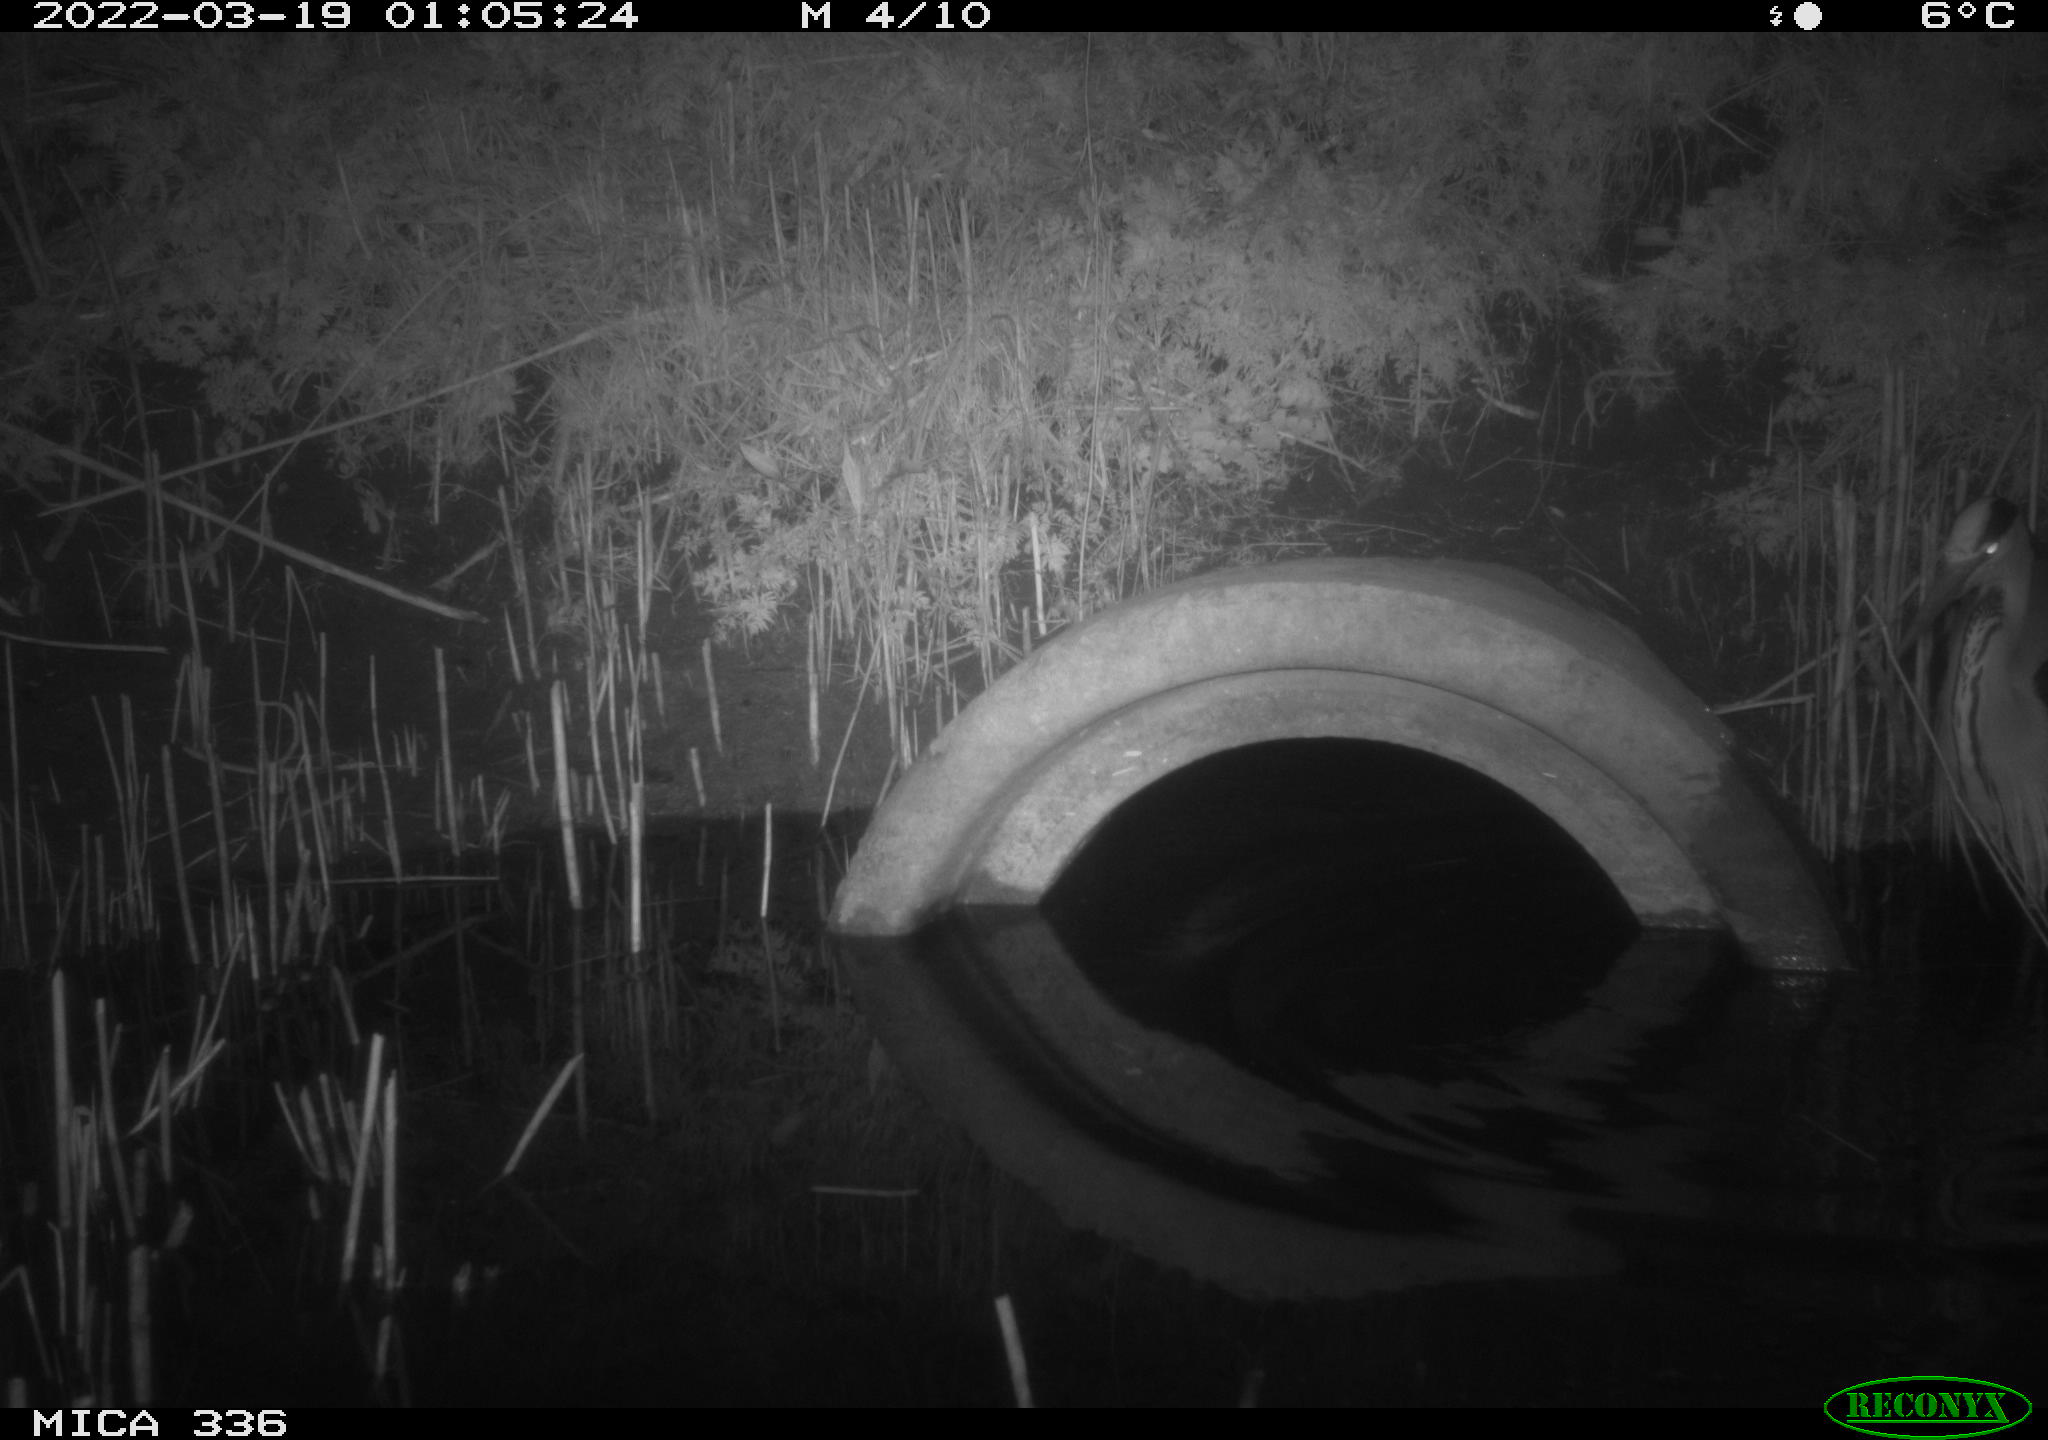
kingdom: Animalia
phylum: Chordata
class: Aves
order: Pelecaniformes
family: Ardeidae
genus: Ardea
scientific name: Ardea cinerea
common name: Grey heron
